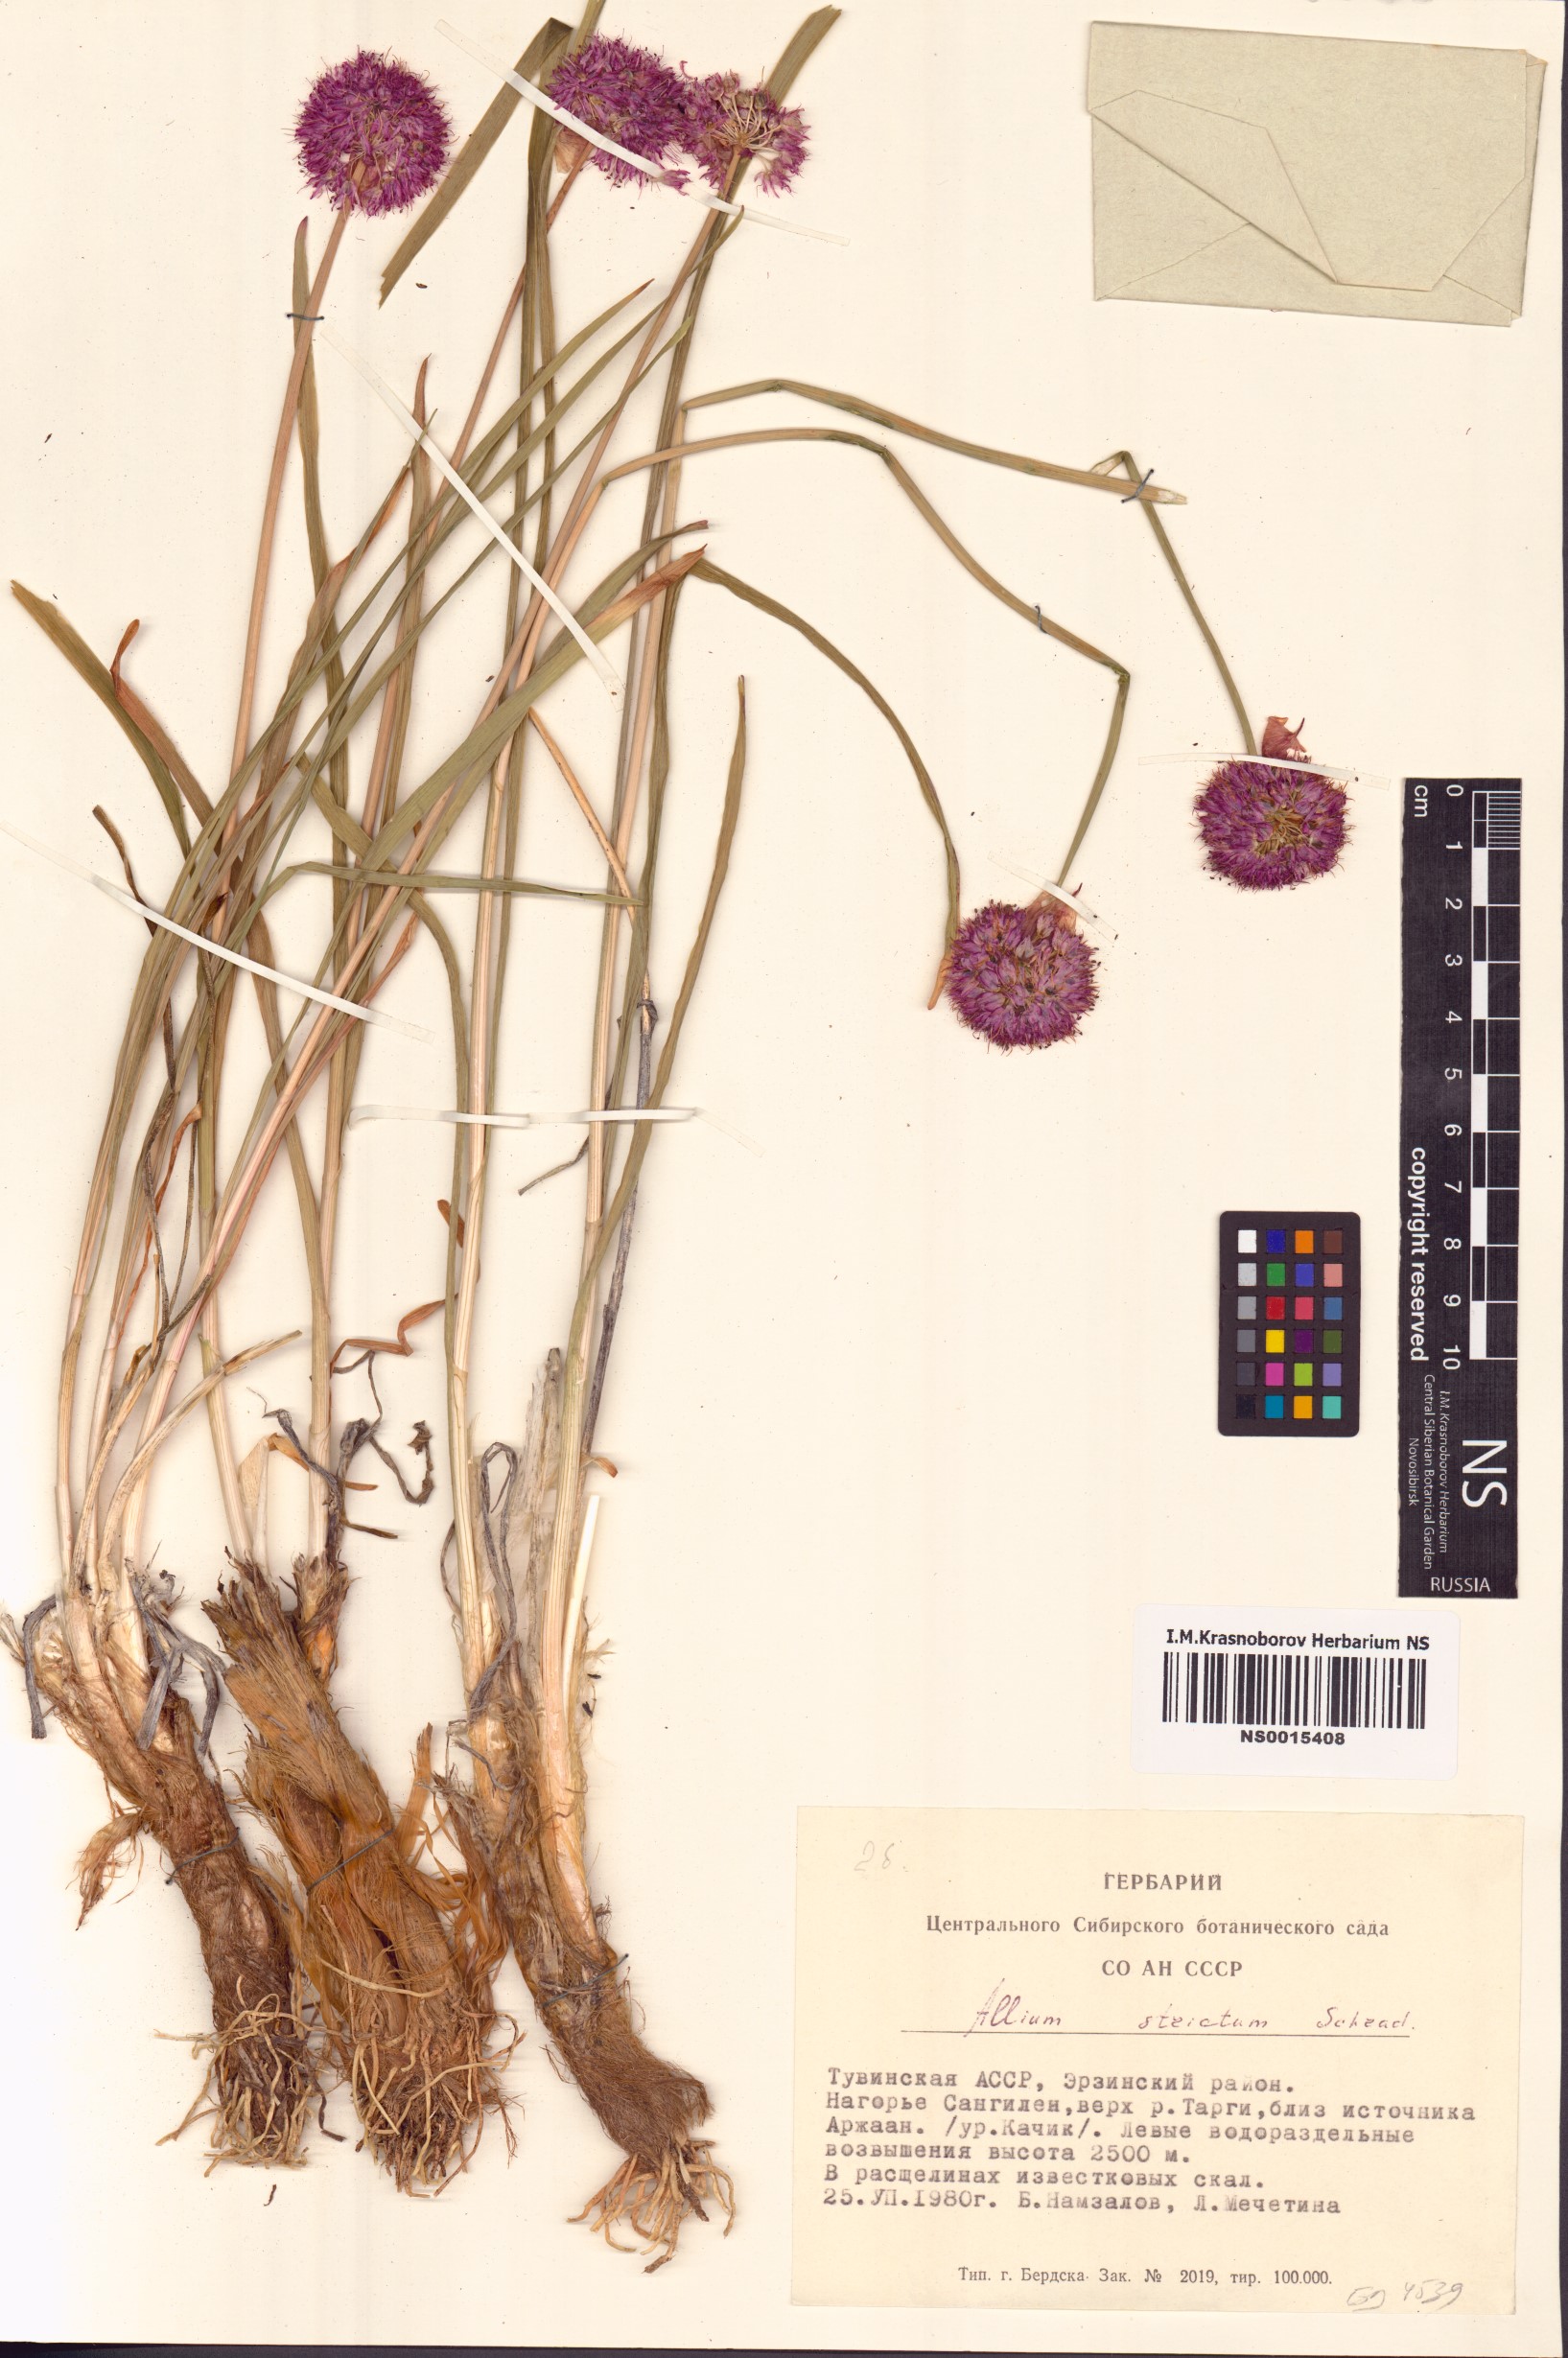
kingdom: Plantae
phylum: Tracheophyta
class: Liliopsida
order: Asparagales
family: Amaryllidaceae
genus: Allium
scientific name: Allium strictum
